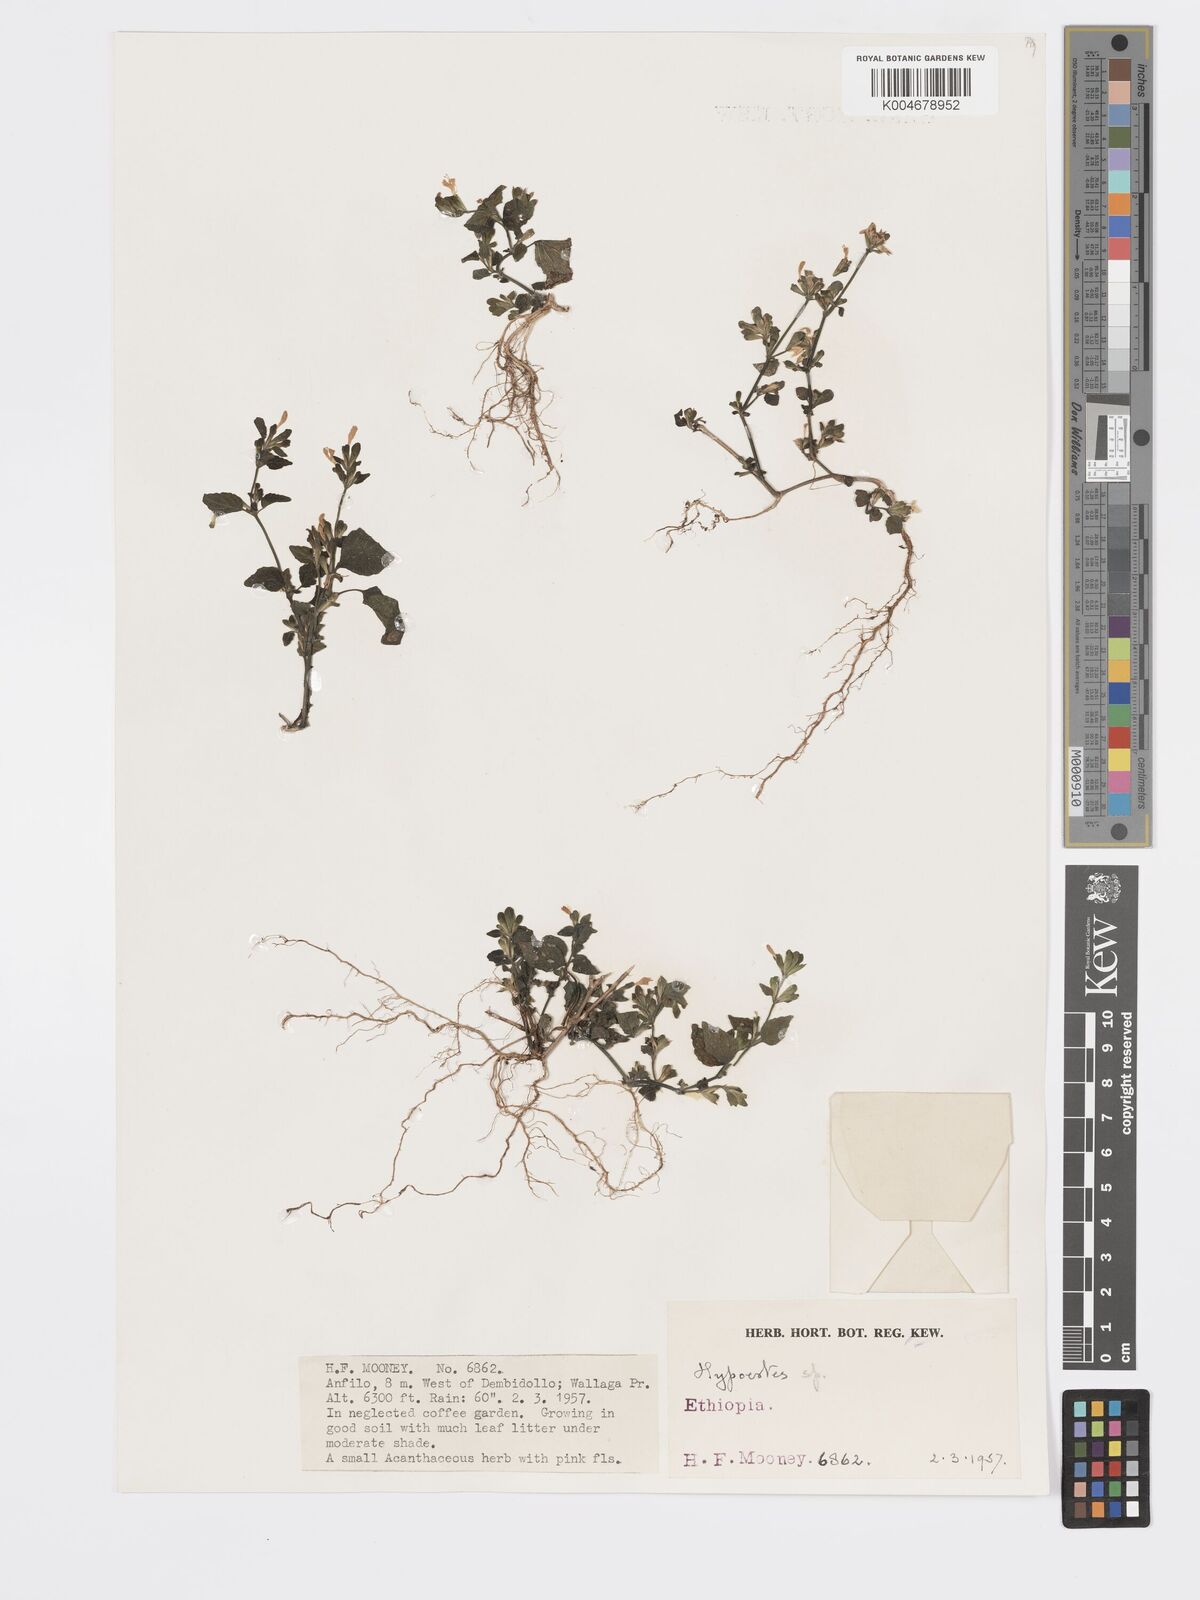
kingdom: Plantae
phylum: Tracheophyta
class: Magnoliopsida
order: Lamiales
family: Acanthaceae
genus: Hypoestes
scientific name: Hypoestes triflora
